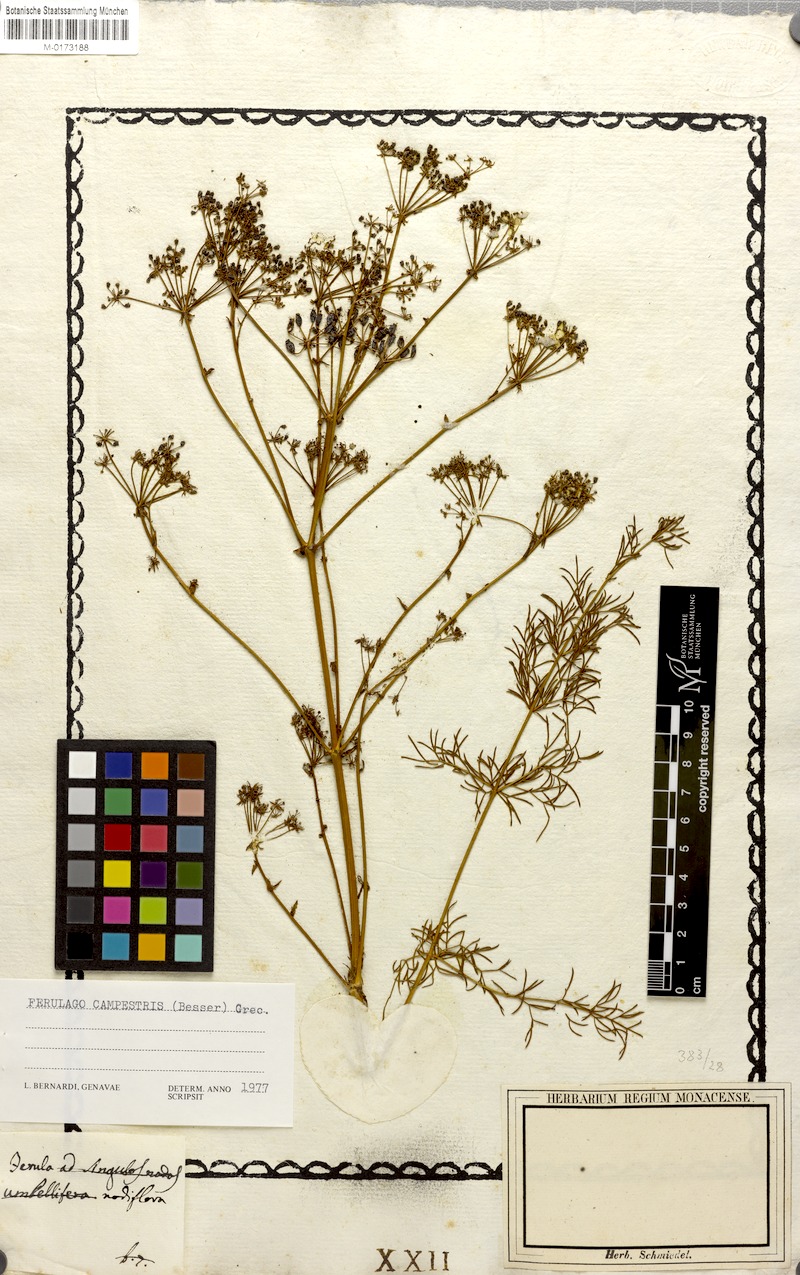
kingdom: Plantae
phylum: Tracheophyta
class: Magnoliopsida
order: Apiales
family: Apiaceae
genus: Ferulago
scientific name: Ferulago galbanifera
